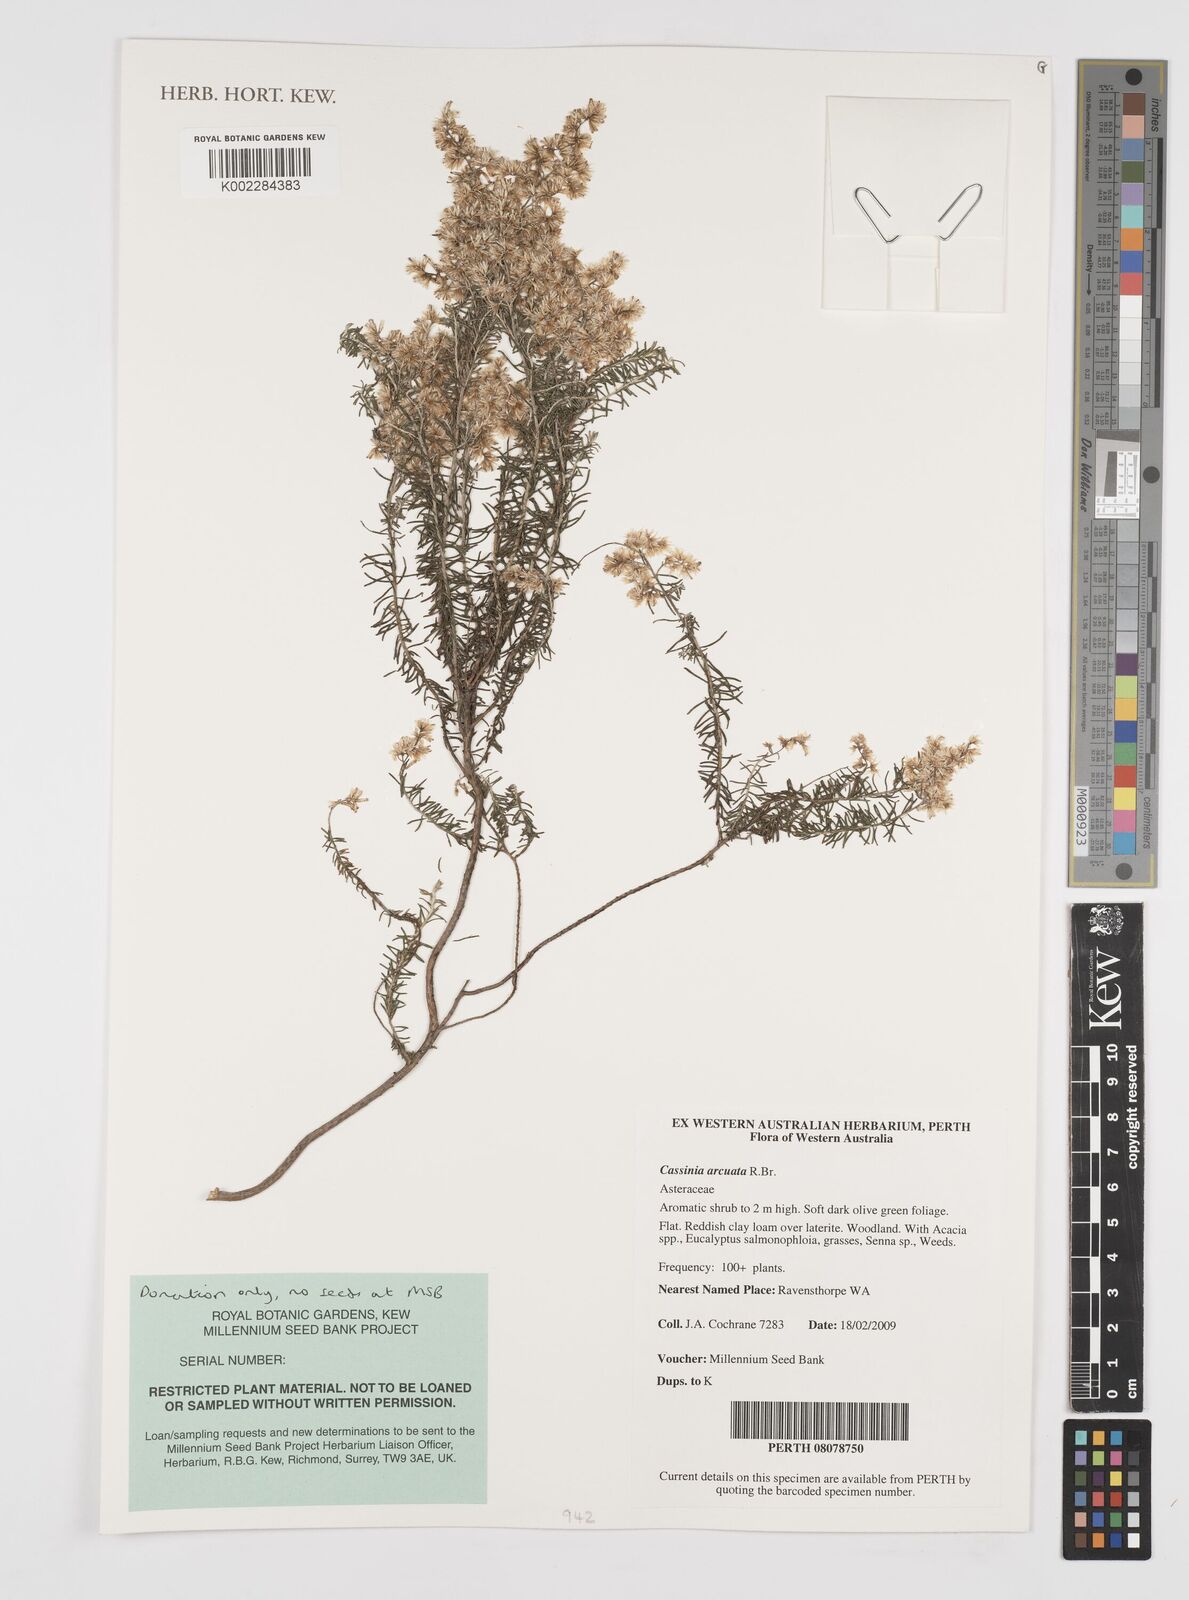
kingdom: Plantae
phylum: Tracheophyta
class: Magnoliopsida
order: Asterales
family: Asteraceae
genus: Cassinia
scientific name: Cassinia arcuata
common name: Chineseshrub
